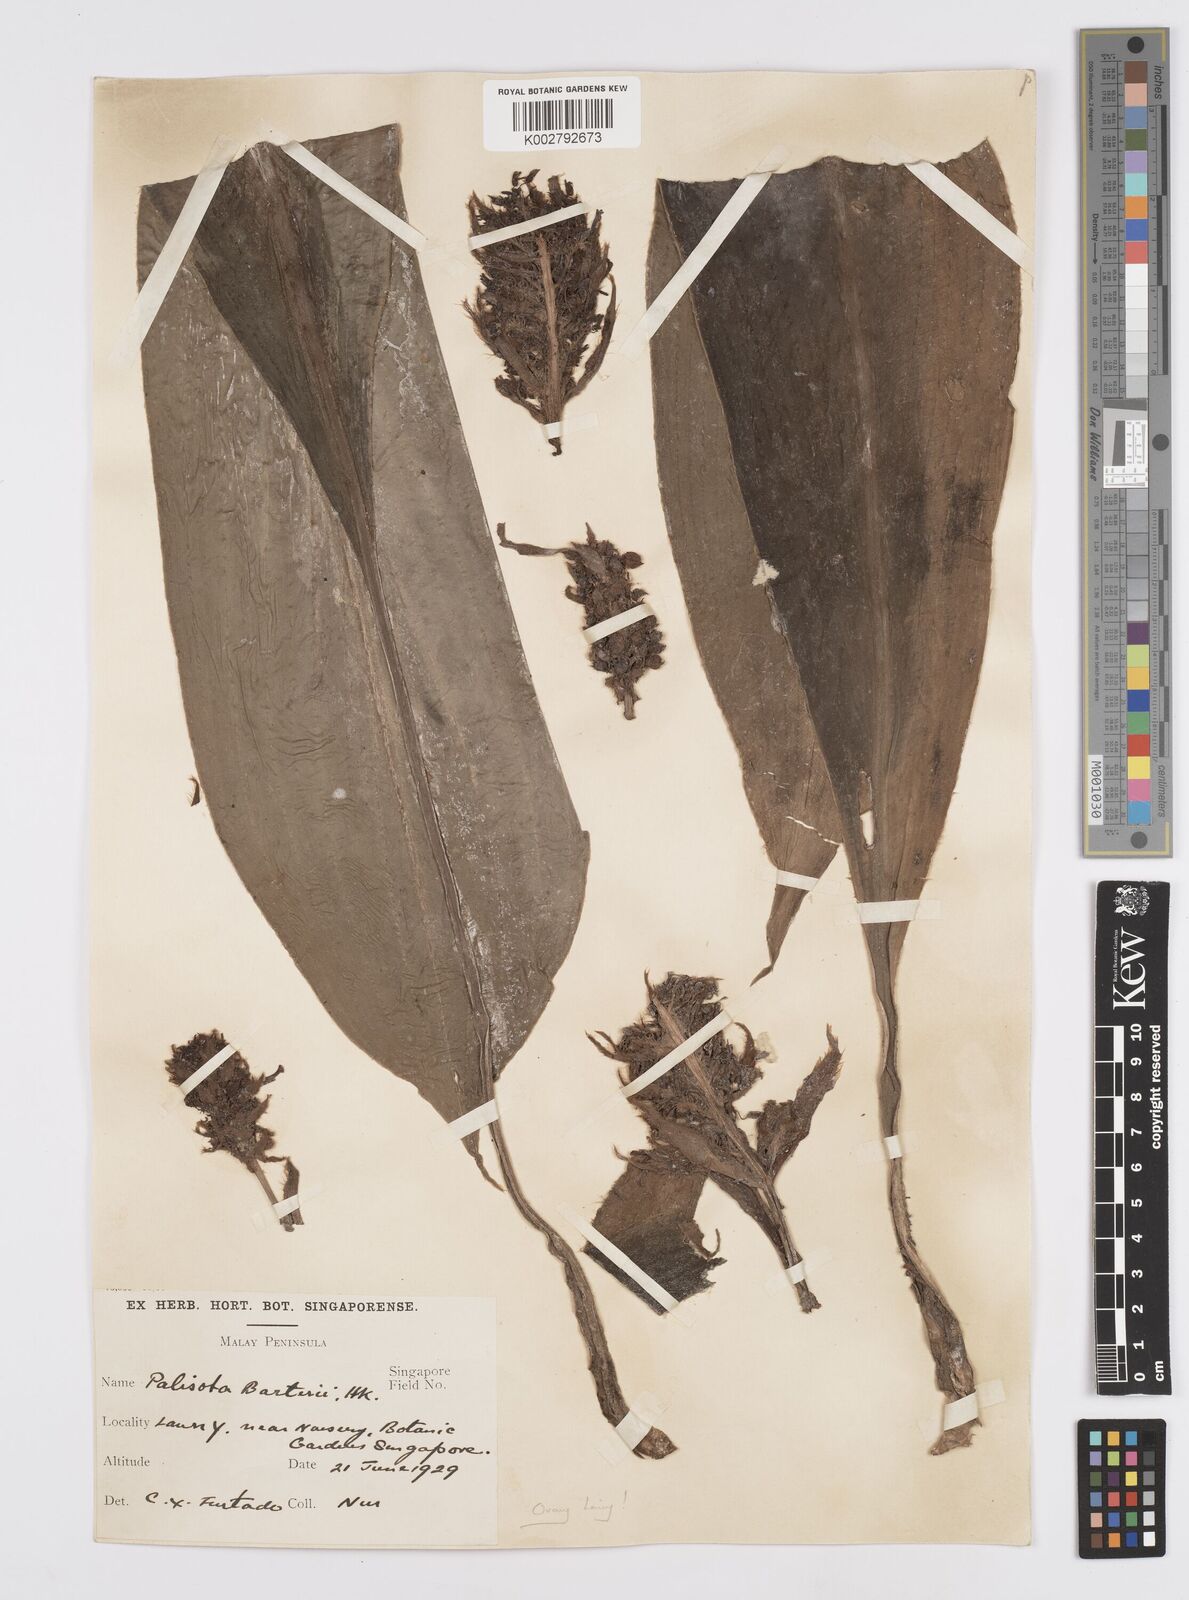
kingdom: Plantae
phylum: Tracheophyta
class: Liliopsida
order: Commelinales
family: Commelinaceae
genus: Palisota
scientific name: Palisota barteri
